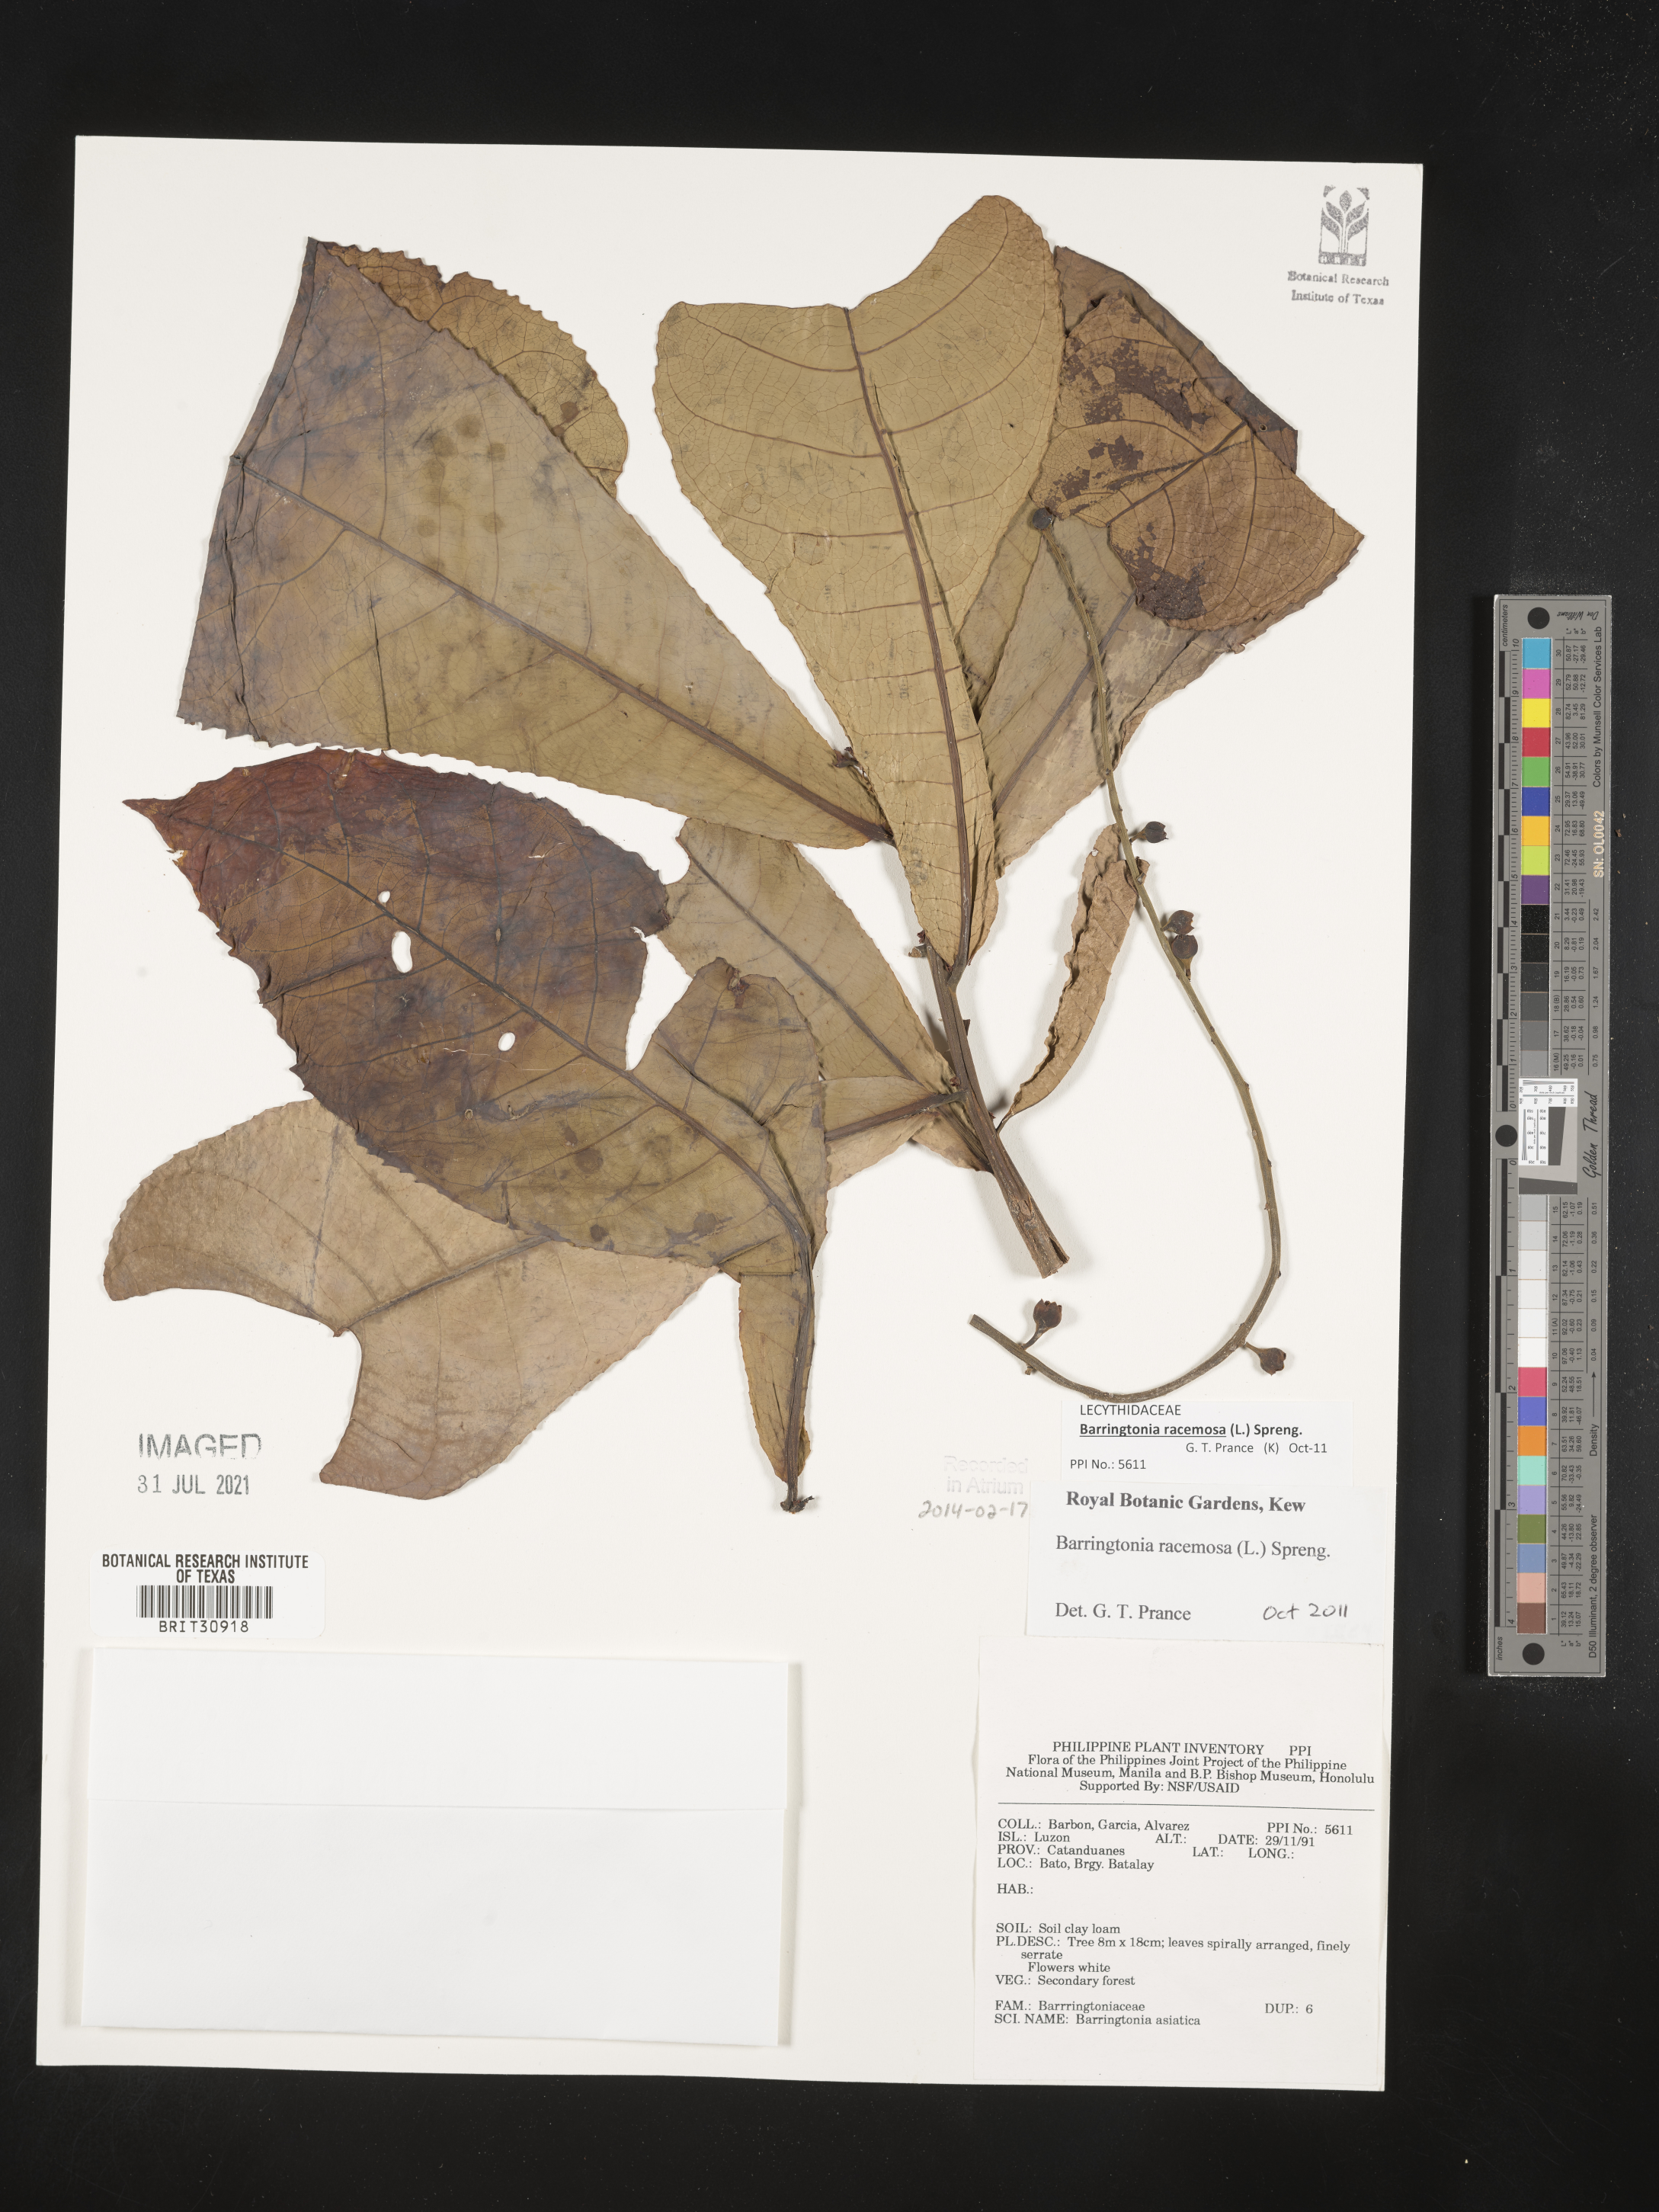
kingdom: Plantae
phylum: Tracheophyta
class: Magnoliopsida
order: Ericales
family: Lecythidaceae
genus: Barringtonia
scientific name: Barringtonia asiatica
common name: Mango-pine
